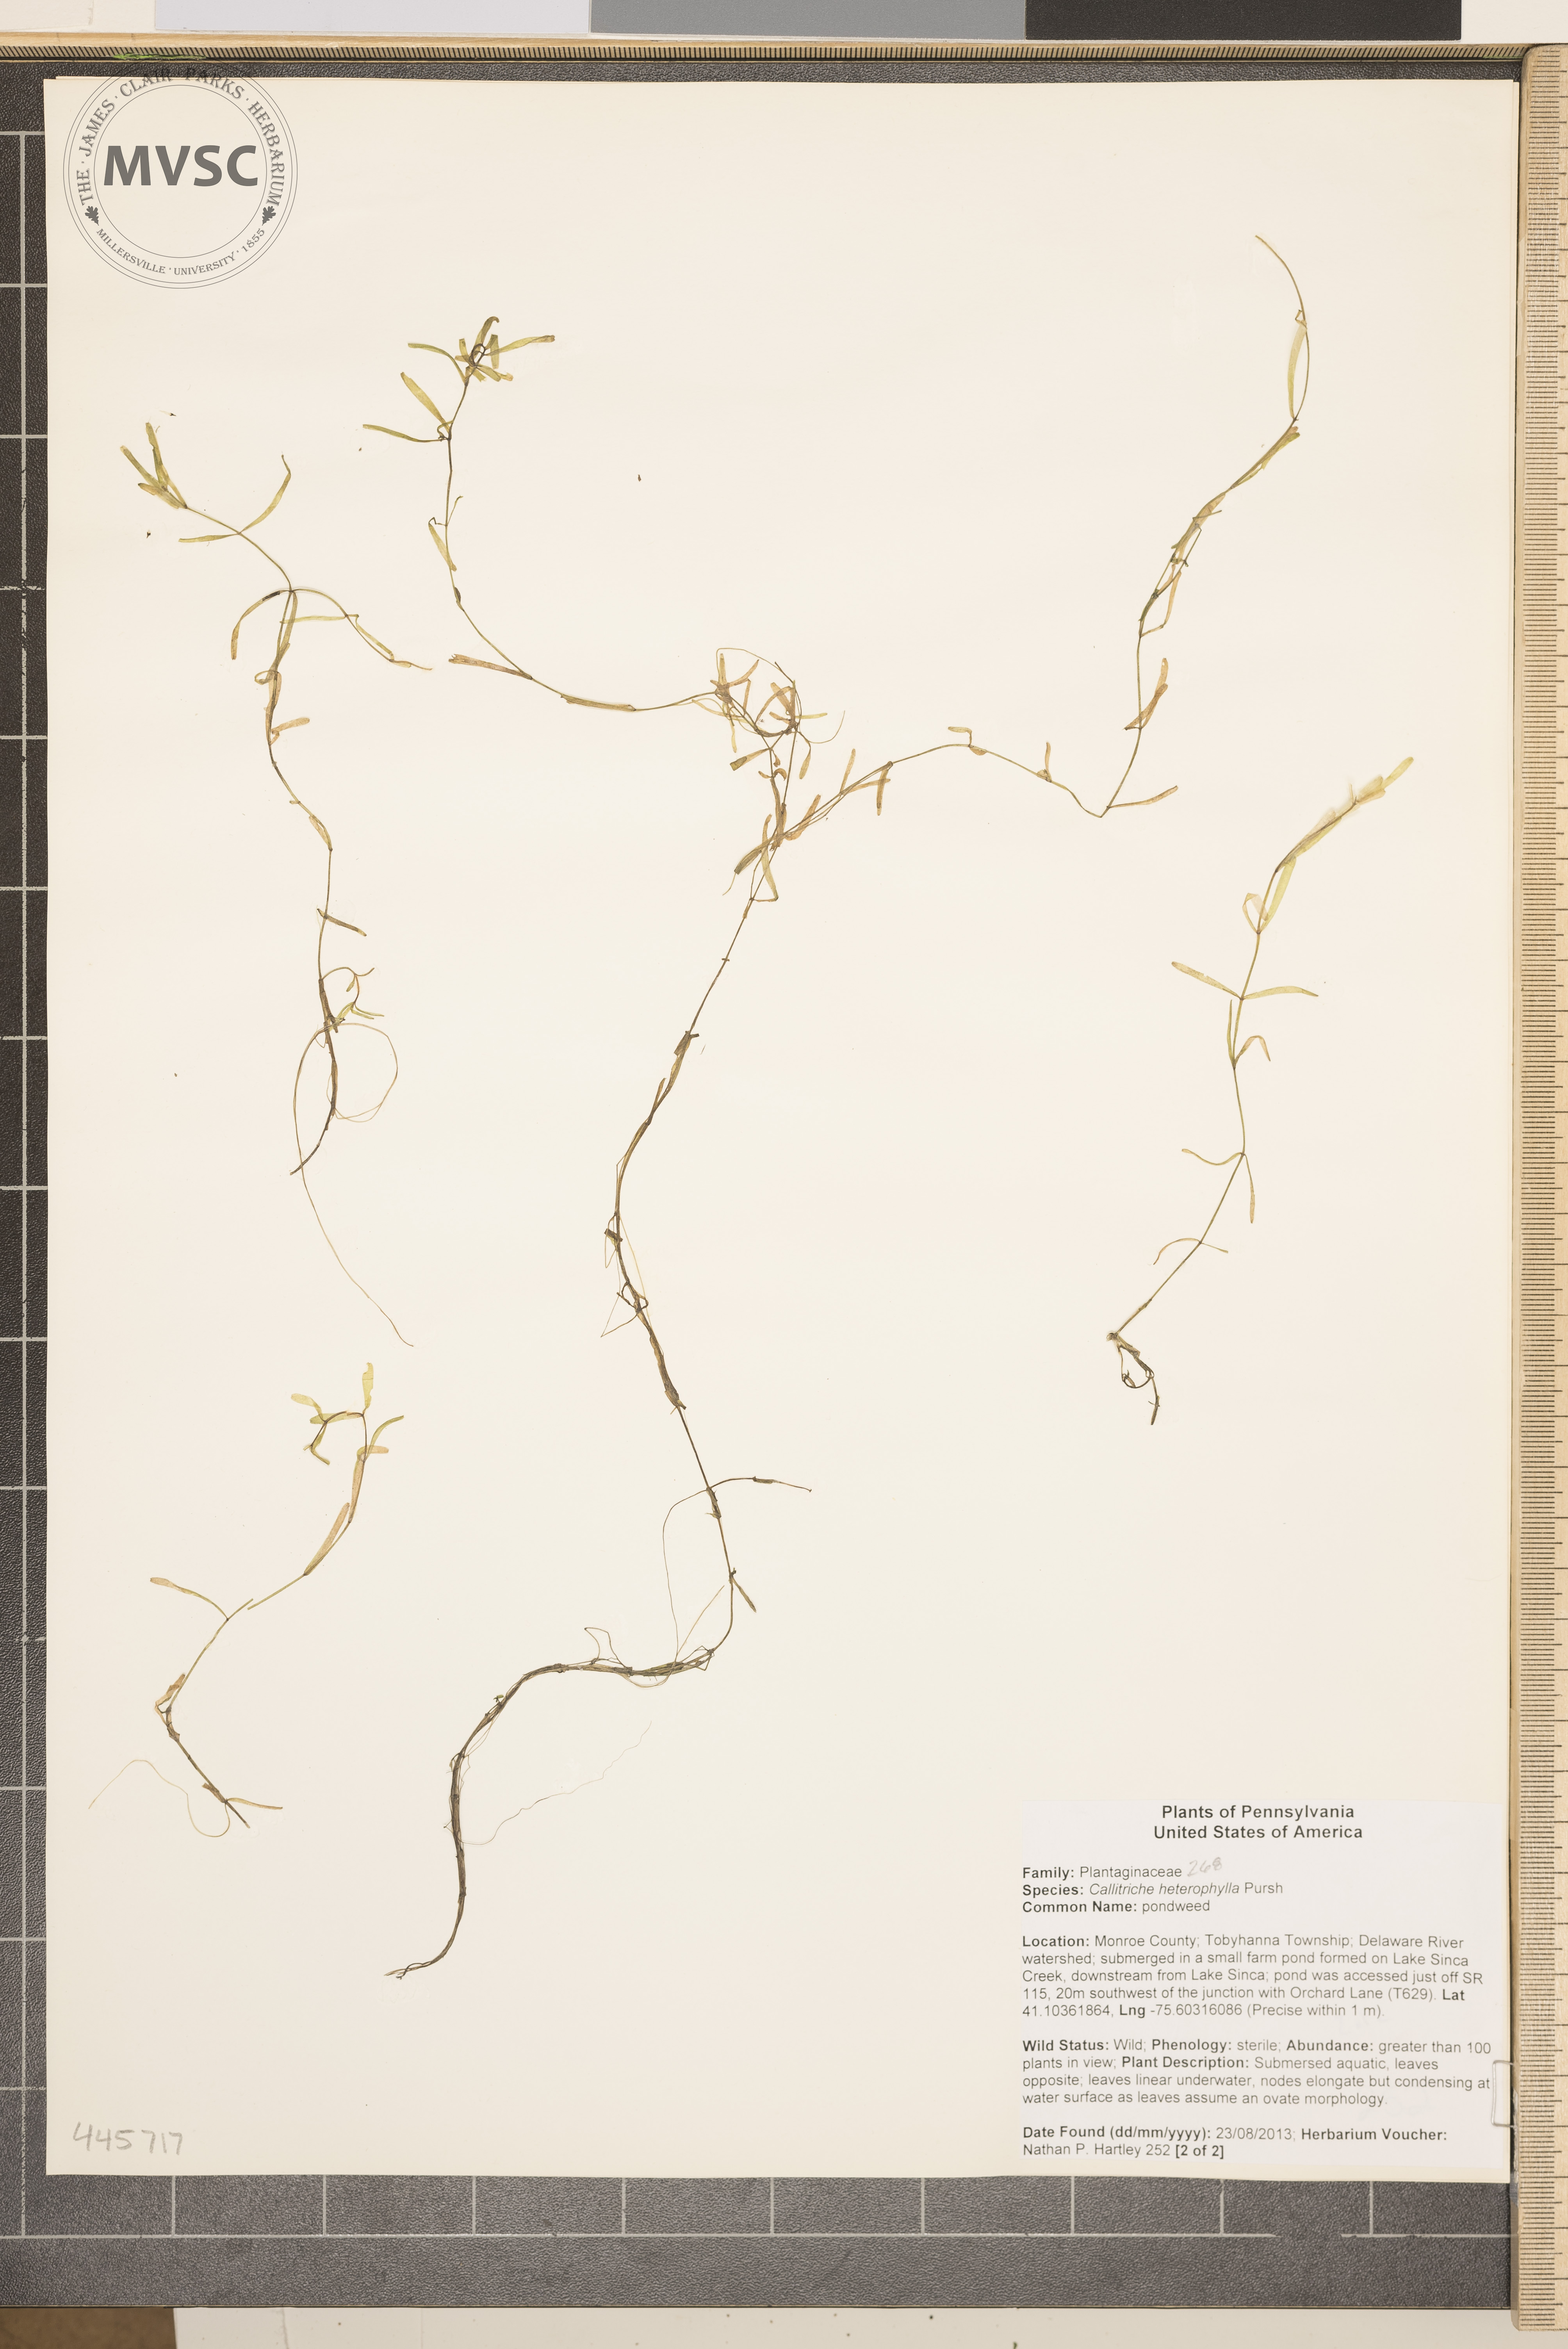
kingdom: Plantae
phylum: Tracheophyta
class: Magnoliopsida
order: Lamiales
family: Plantaginaceae
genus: Callitriche
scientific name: Callitriche heterophylla
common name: pondweed
